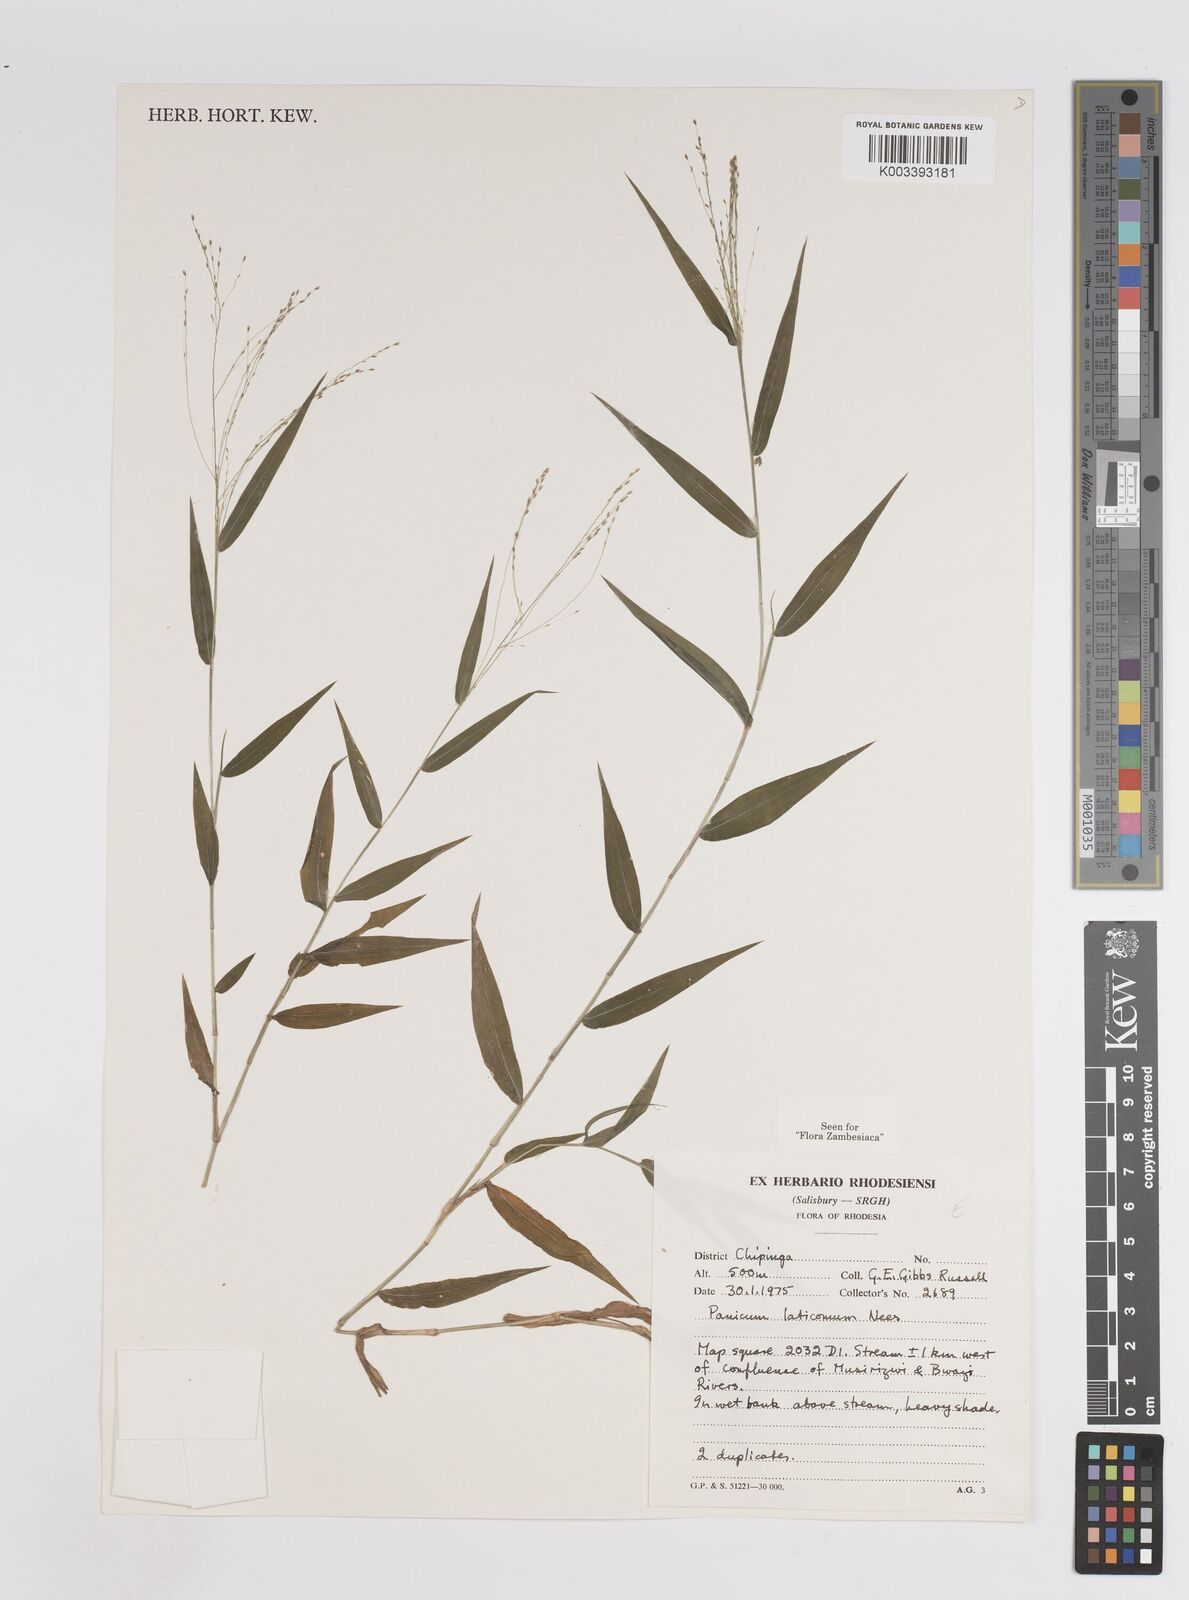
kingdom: Plantae
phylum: Tracheophyta
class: Liliopsida
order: Poales
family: Poaceae
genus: Panicum
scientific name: Panicum laticomum
